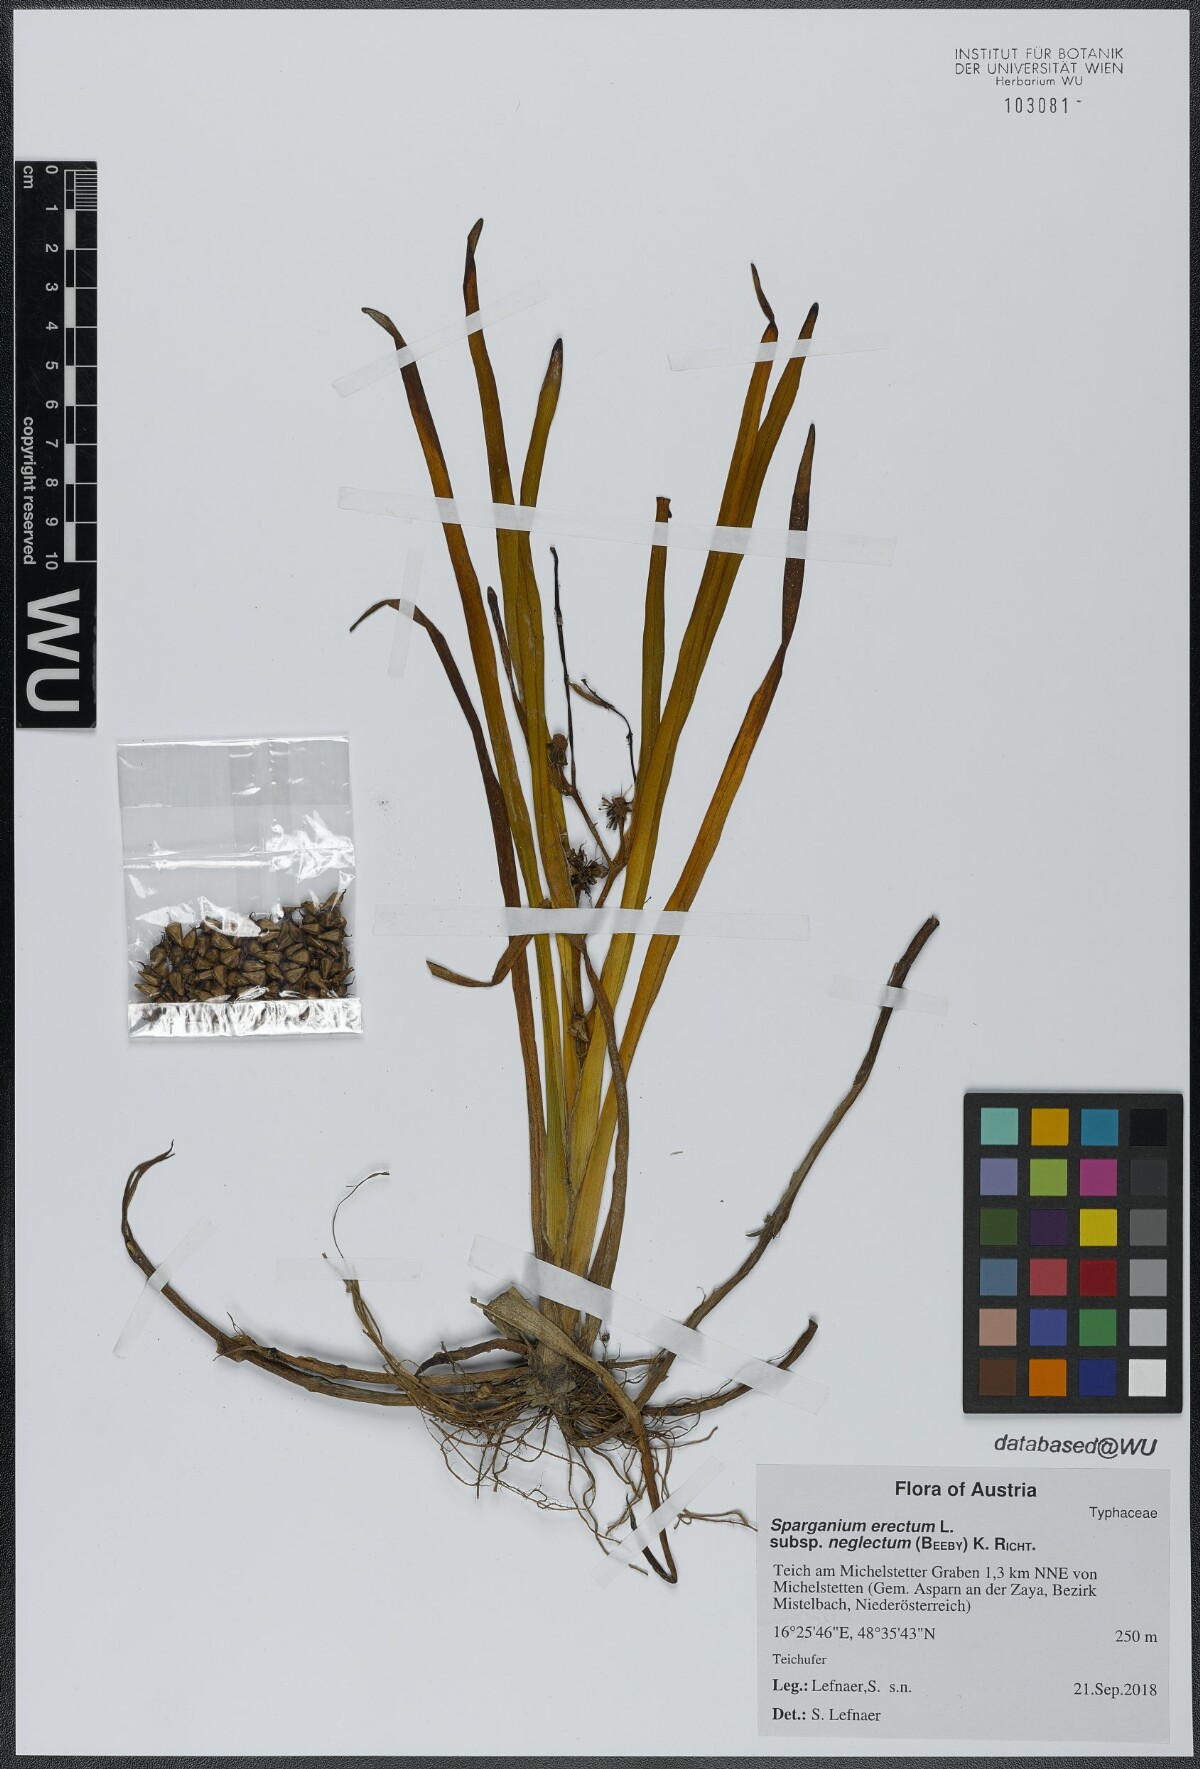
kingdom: Plantae
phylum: Tracheophyta
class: Liliopsida
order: Poales
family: Typhaceae
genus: Sparganium
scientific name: Sparganium erectum
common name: Branched bur-reed
